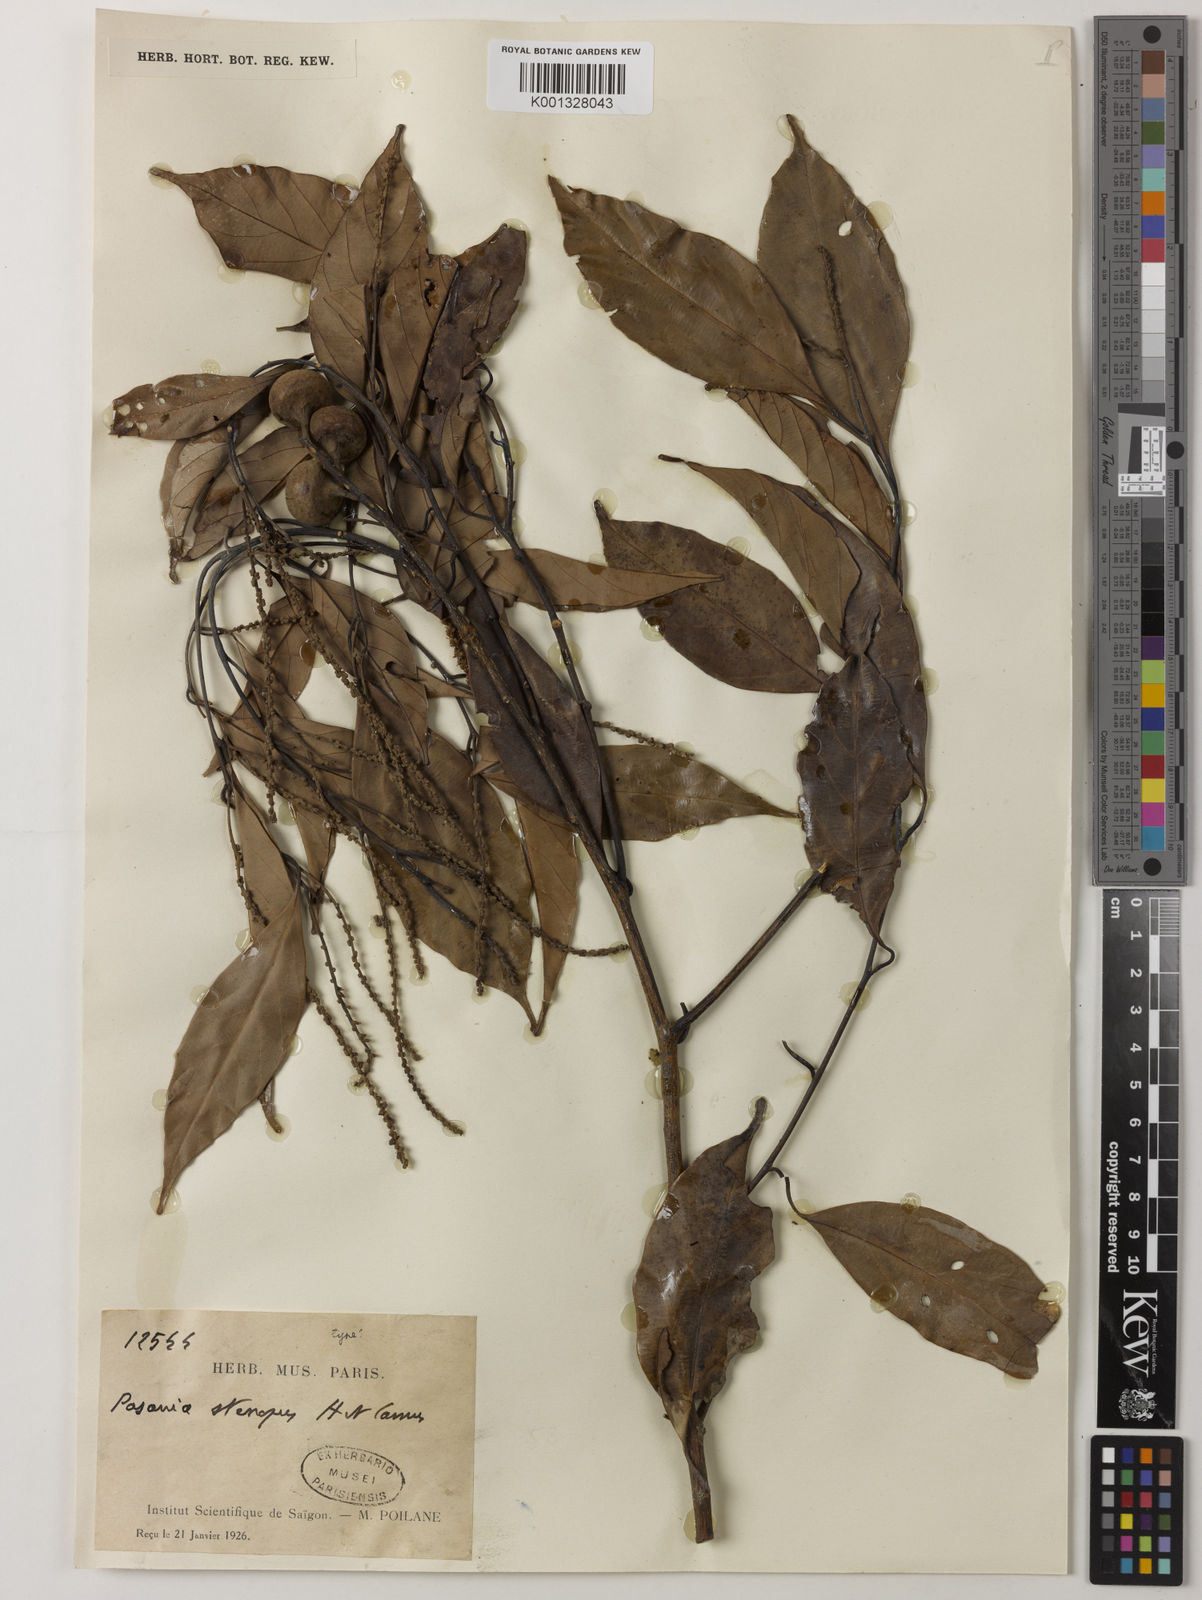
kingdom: Plantae
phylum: Tracheophyta
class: Magnoliopsida
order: Fagales
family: Fagaceae
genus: Lithocarpus
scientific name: Lithocarpus stenopus
